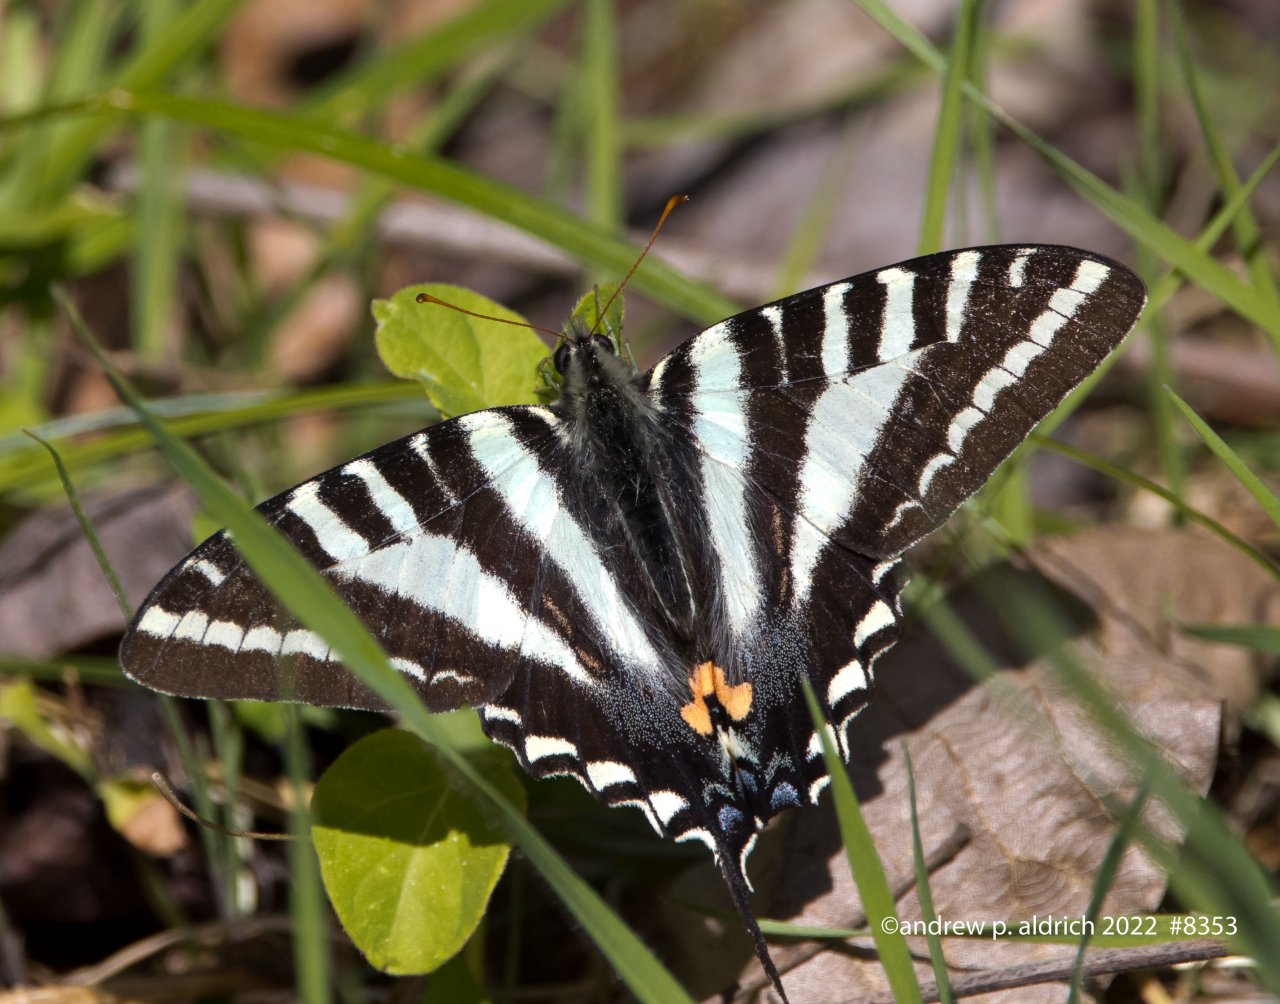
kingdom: Animalia
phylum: Arthropoda
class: Insecta
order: Lepidoptera
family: Papilionidae
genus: Protographium
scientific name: Protographium marcellus
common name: Zebra Swallowtail
